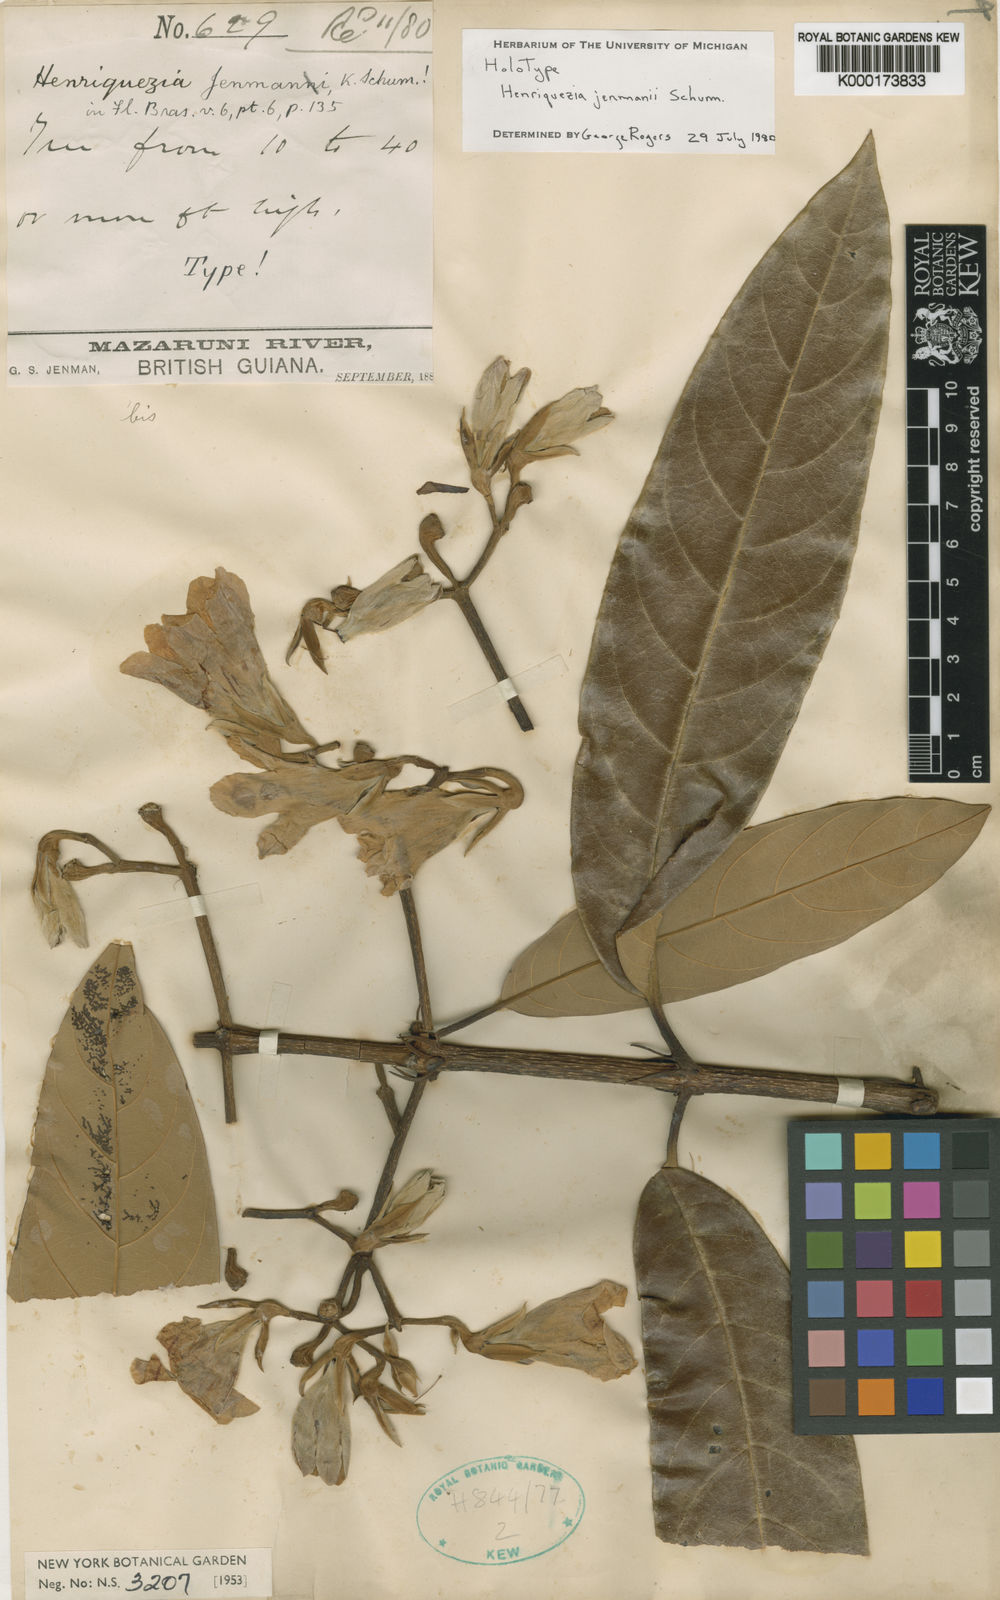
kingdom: Plantae
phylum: Tracheophyta
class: Magnoliopsida
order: Gentianales
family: Rubiaceae
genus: Henriquezia
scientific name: Henriquezia jenmanii
